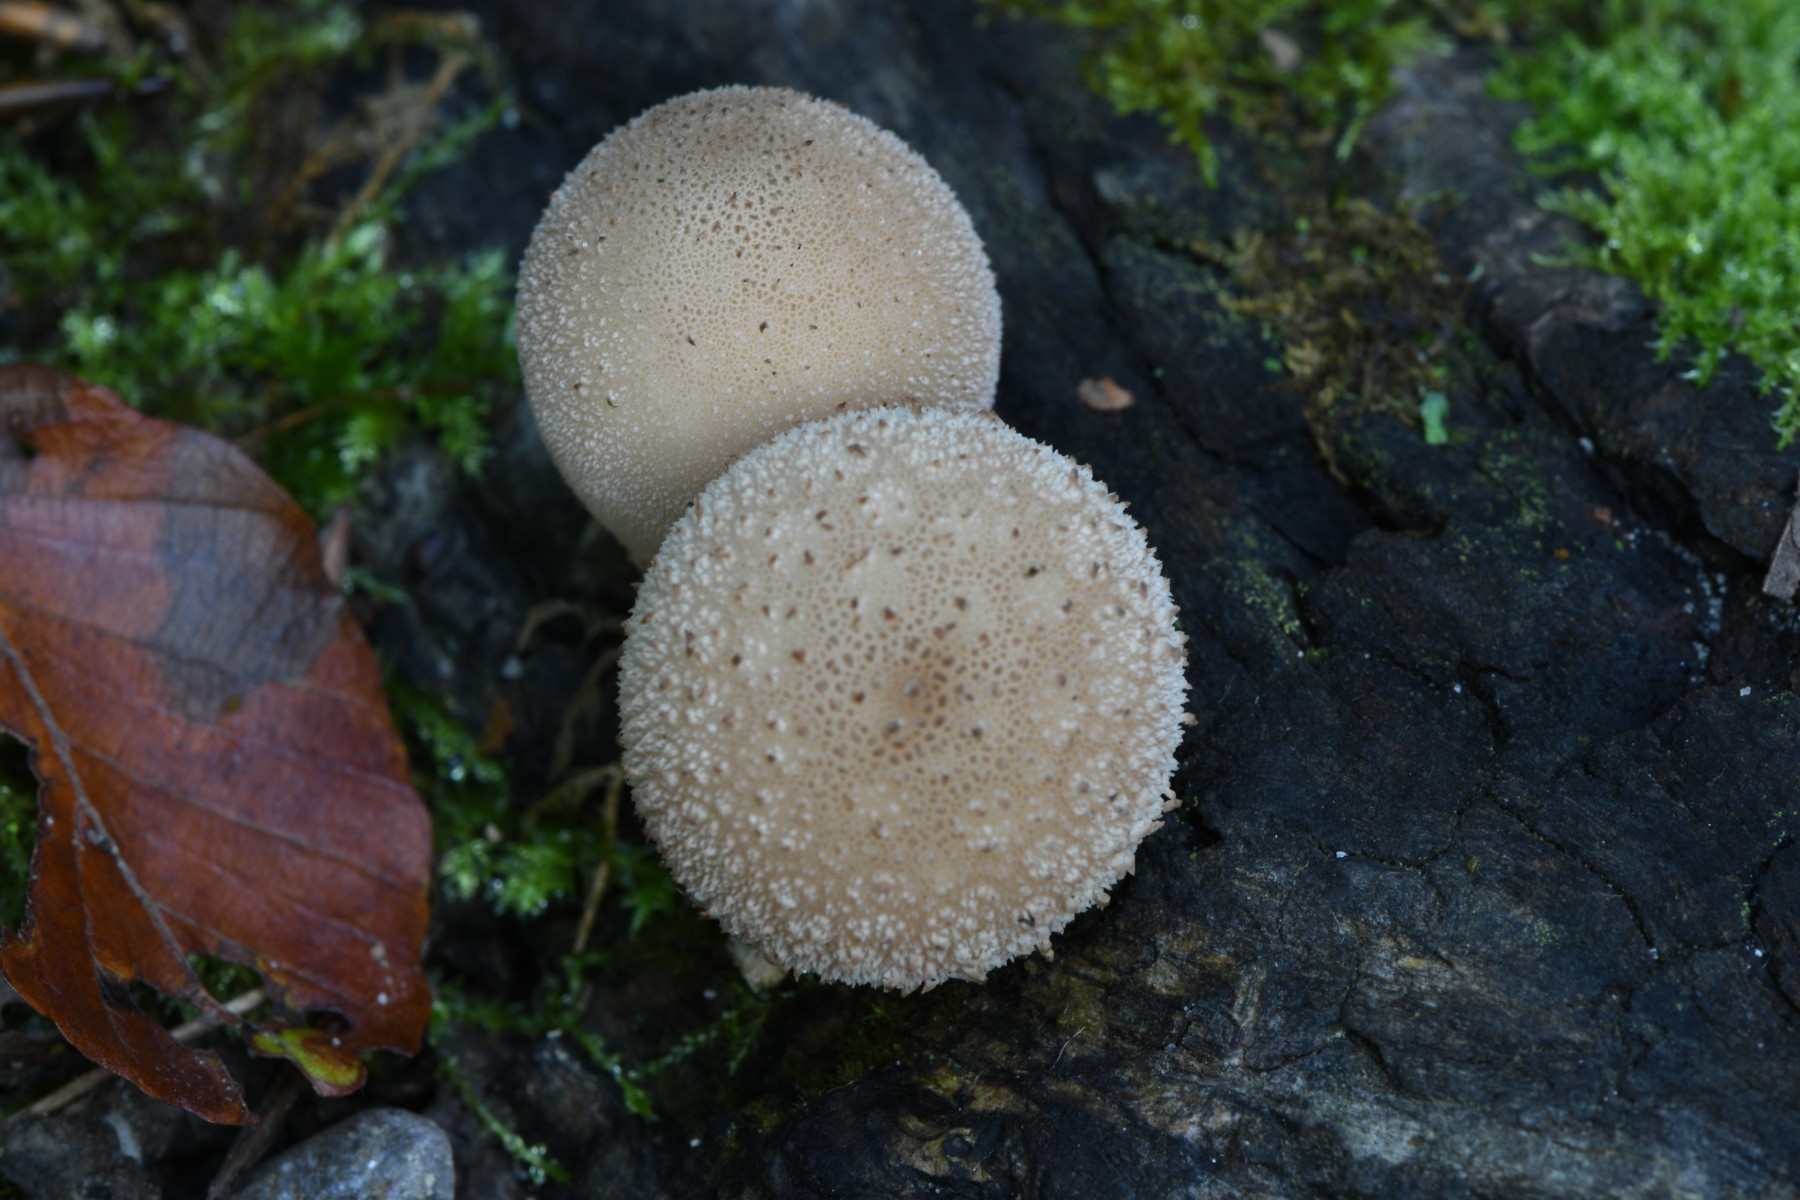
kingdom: Fungi
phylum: Basidiomycota
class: Agaricomycetes
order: Agaricales
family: Lycoperdaceae
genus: Apioperdon
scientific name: Apioperdon pyriforme
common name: pære-støvbold
